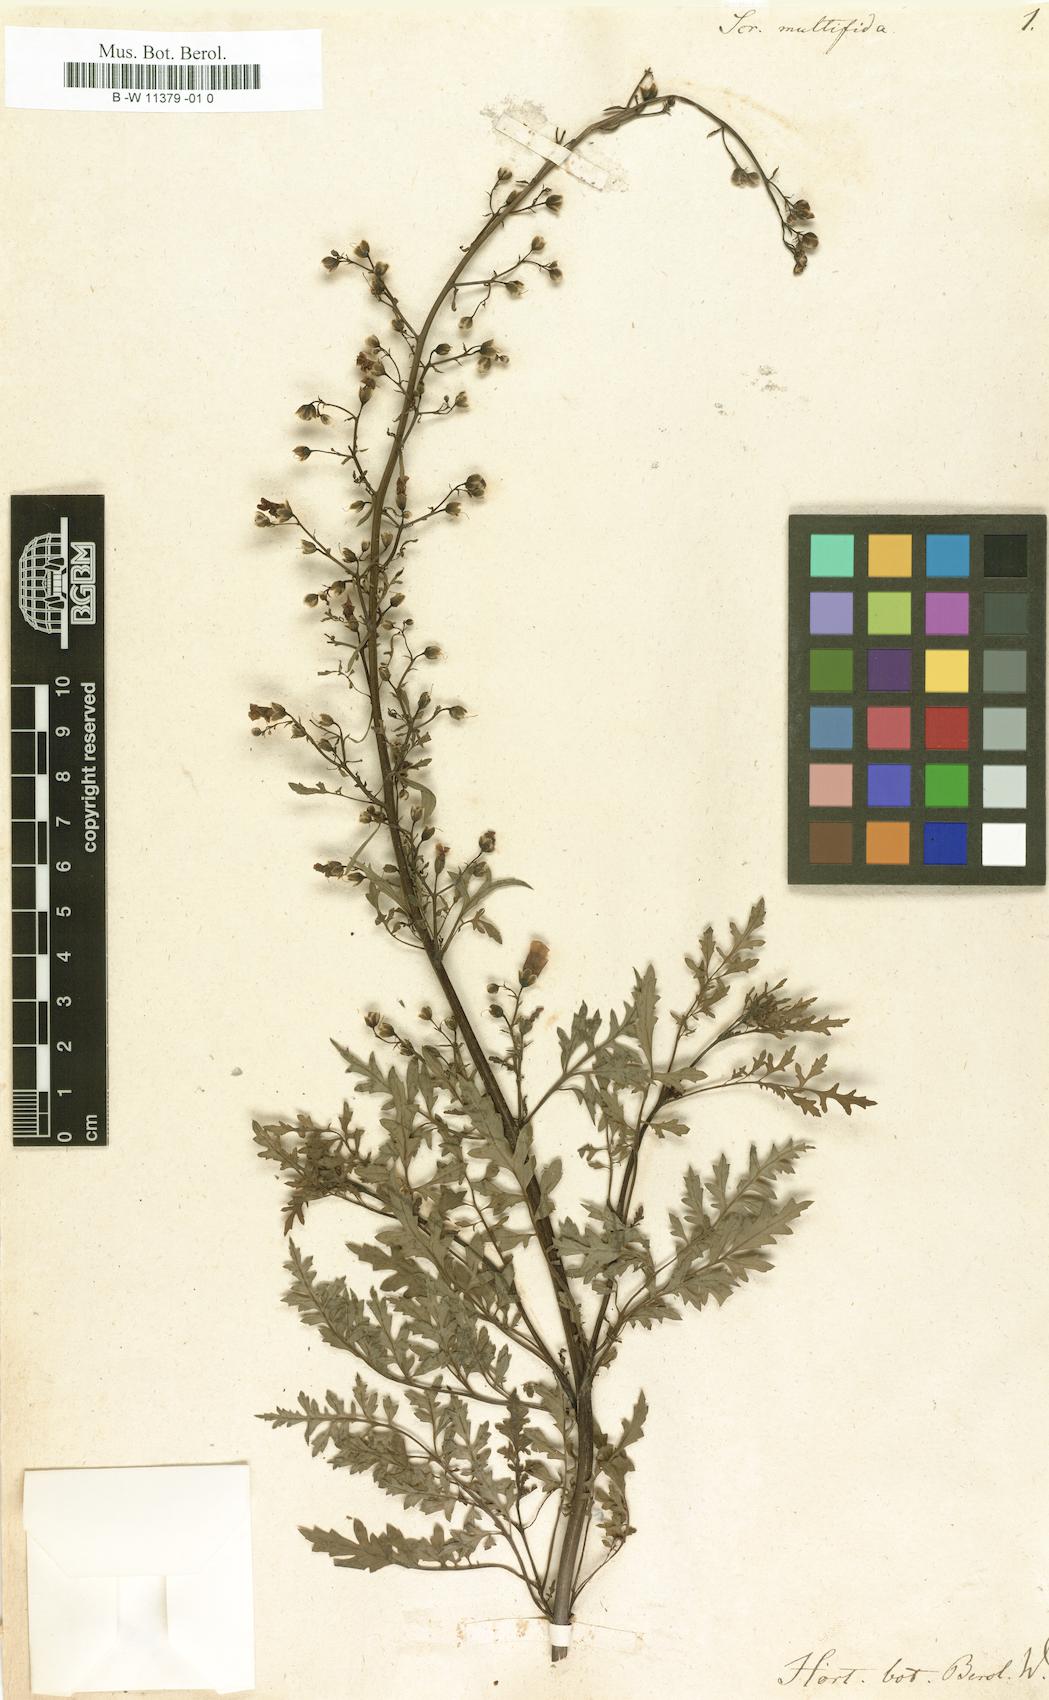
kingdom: Plantae
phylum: Tracheophyta
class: Magnoliopsida
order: Lamiales
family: Scrophulariaceae
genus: Scrophularia
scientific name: Scrophularia
